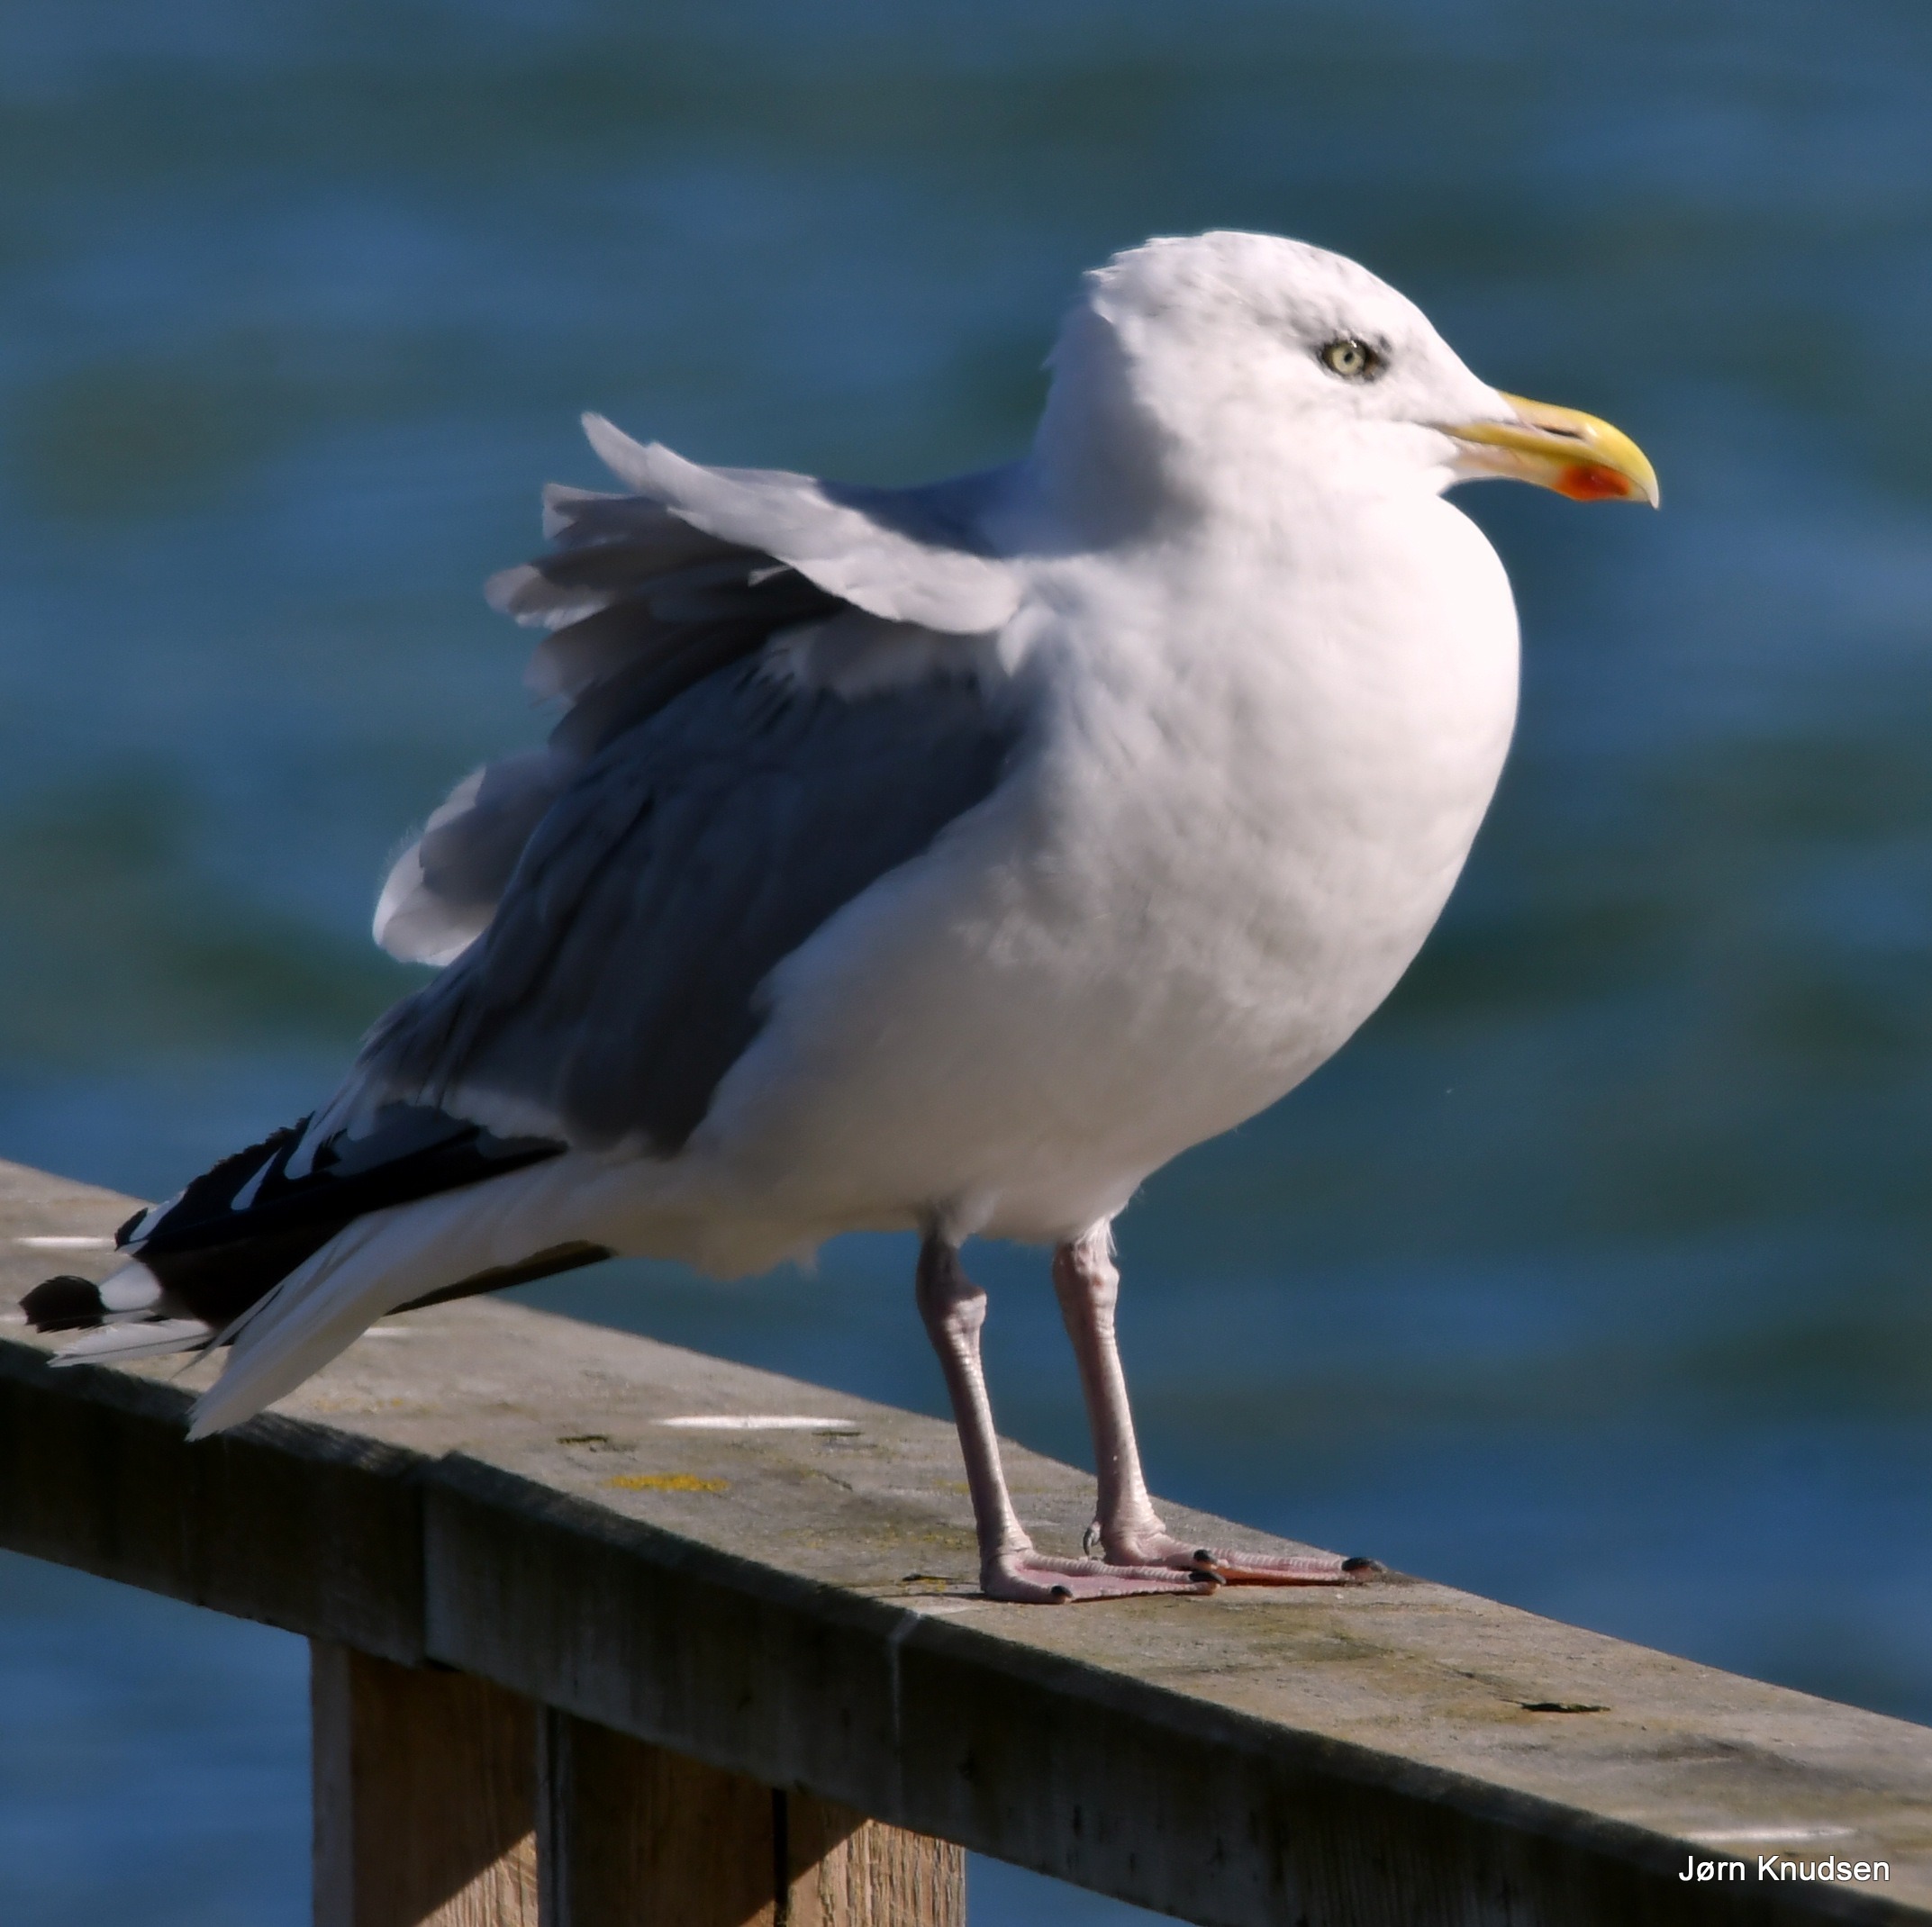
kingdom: Animalia
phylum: Chordata
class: Aves
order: Charadriiformes
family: Laridae
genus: Larus
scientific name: Larus argentatus
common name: Sølvmåge
